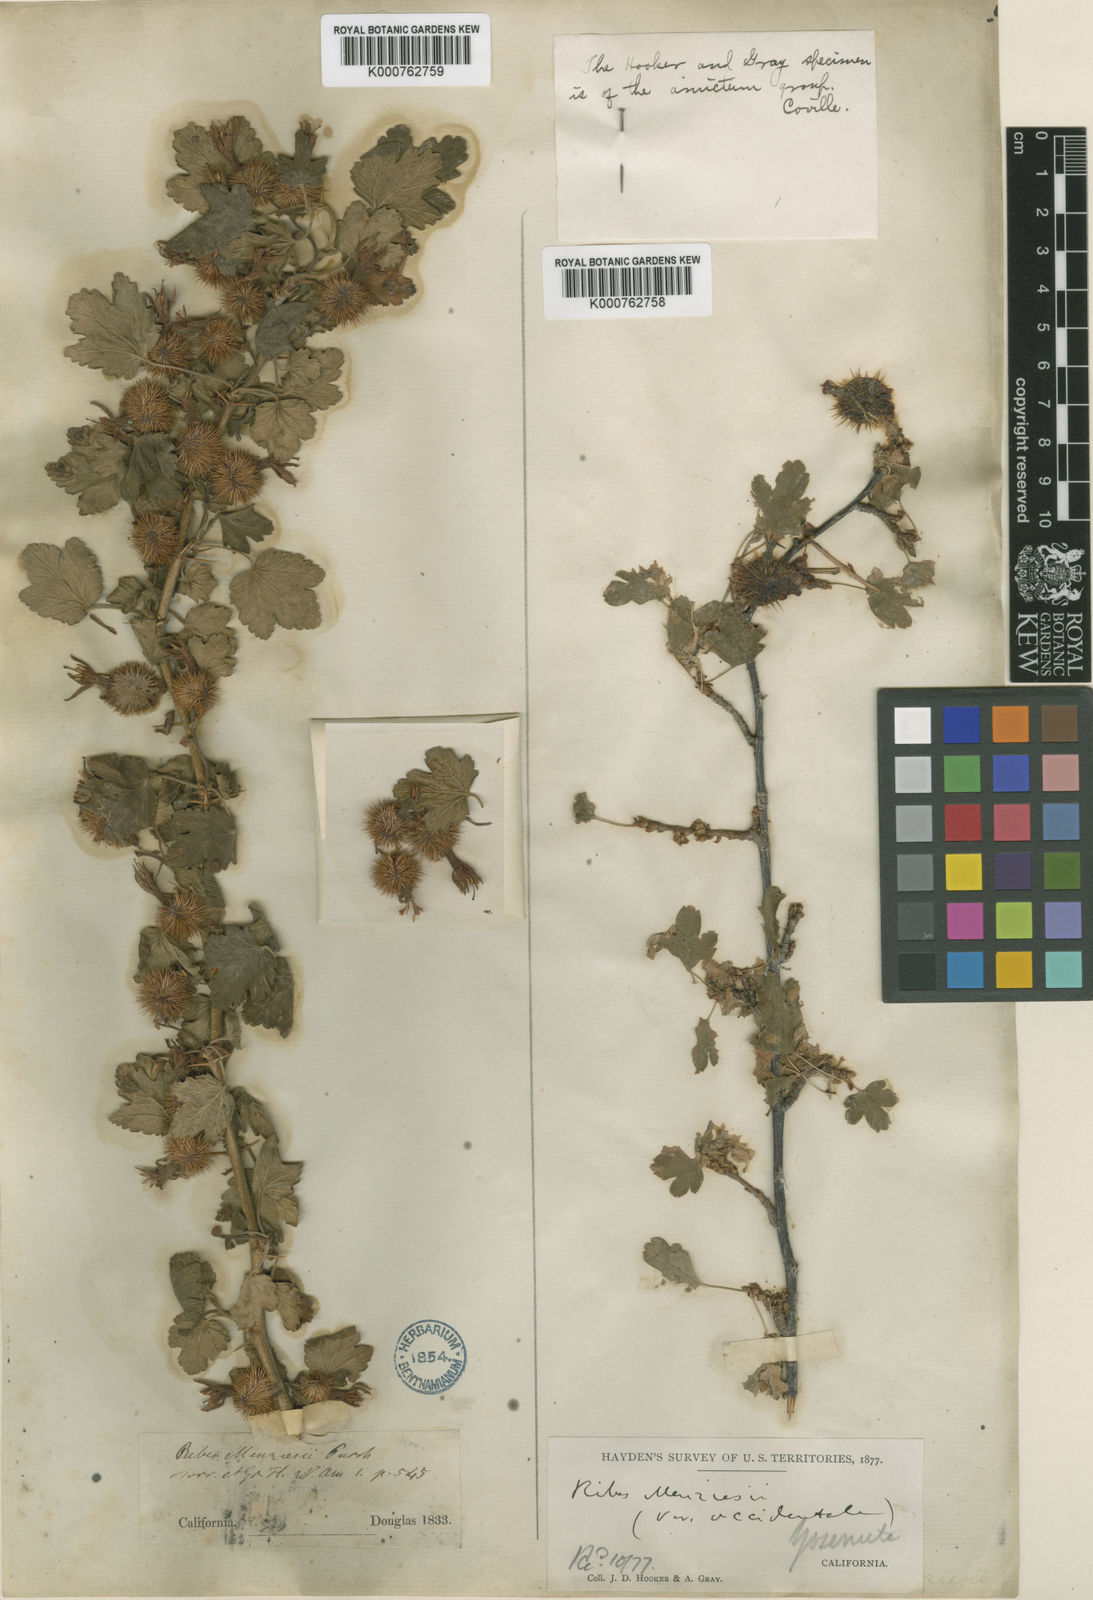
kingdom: Plantae
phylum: Tracheophyta
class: Magnoliopsida
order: Saxifragales
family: Grossulariaceae
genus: Ribes
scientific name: Ribes menziesii
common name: Canyon gooseberry
